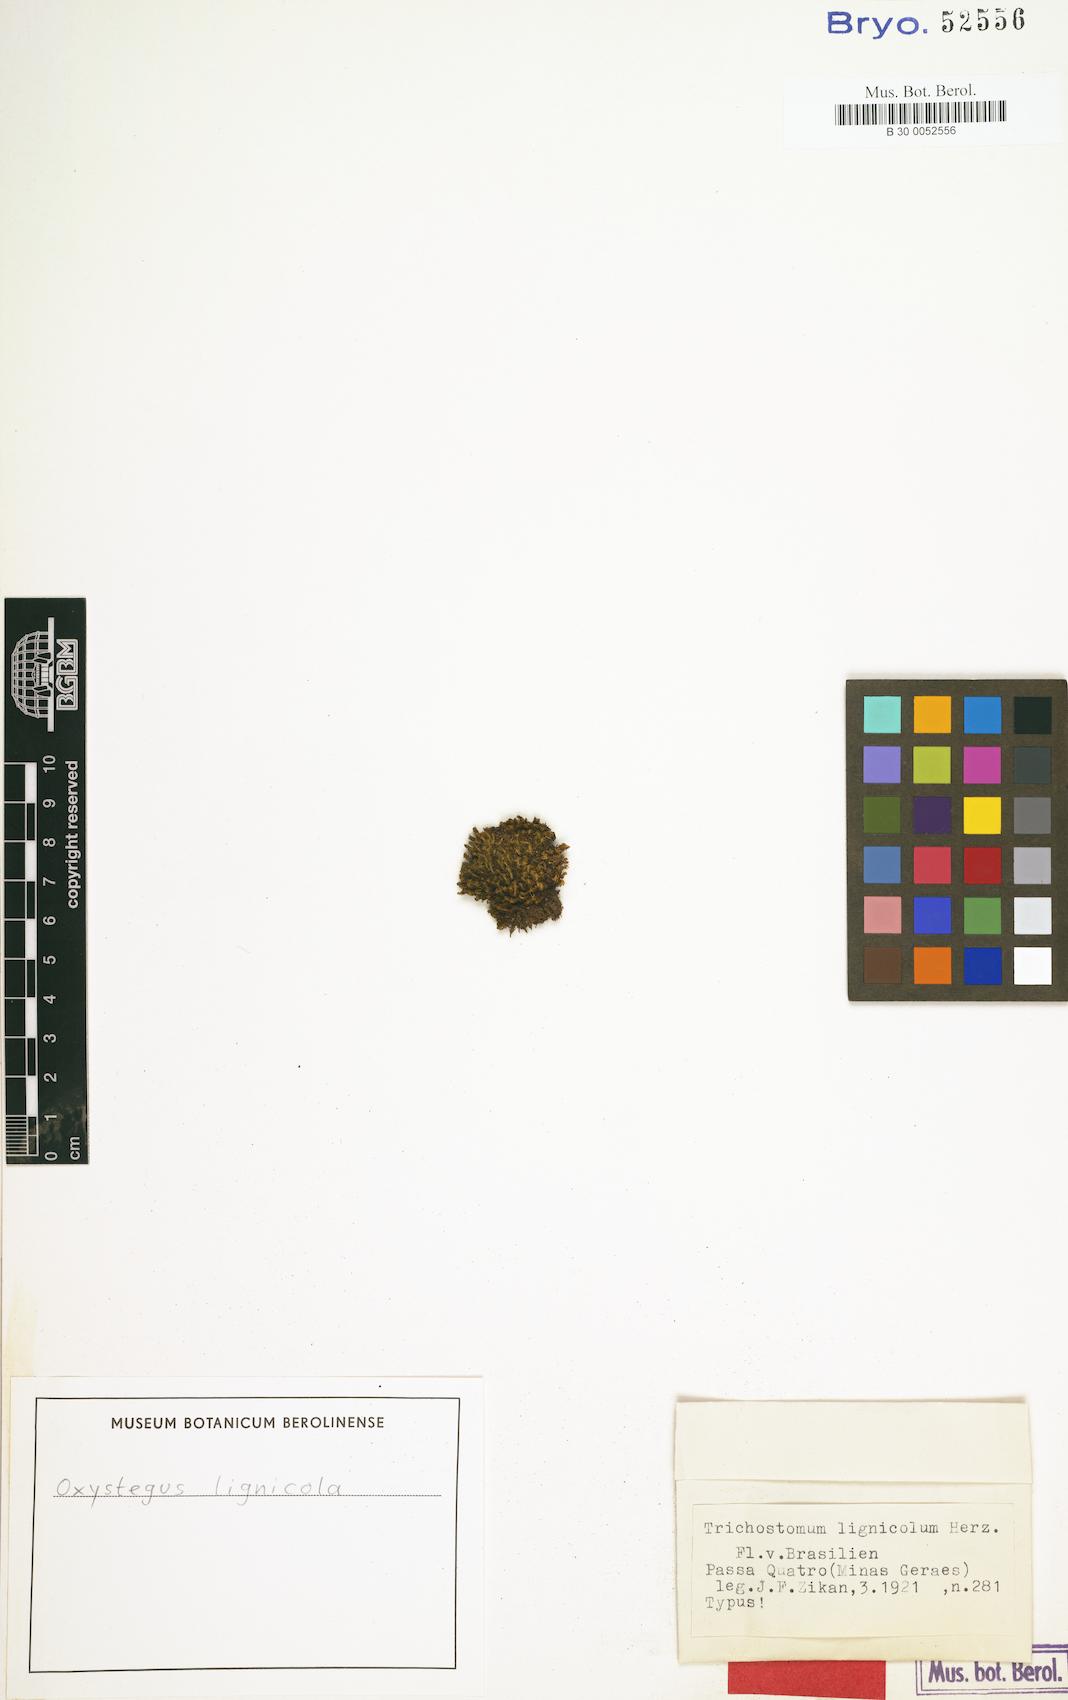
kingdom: Plantae
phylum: Bryophyta
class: Bryopsida
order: Pottiales
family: Pottiaceae
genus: Oxystegus
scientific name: Oxystegus
